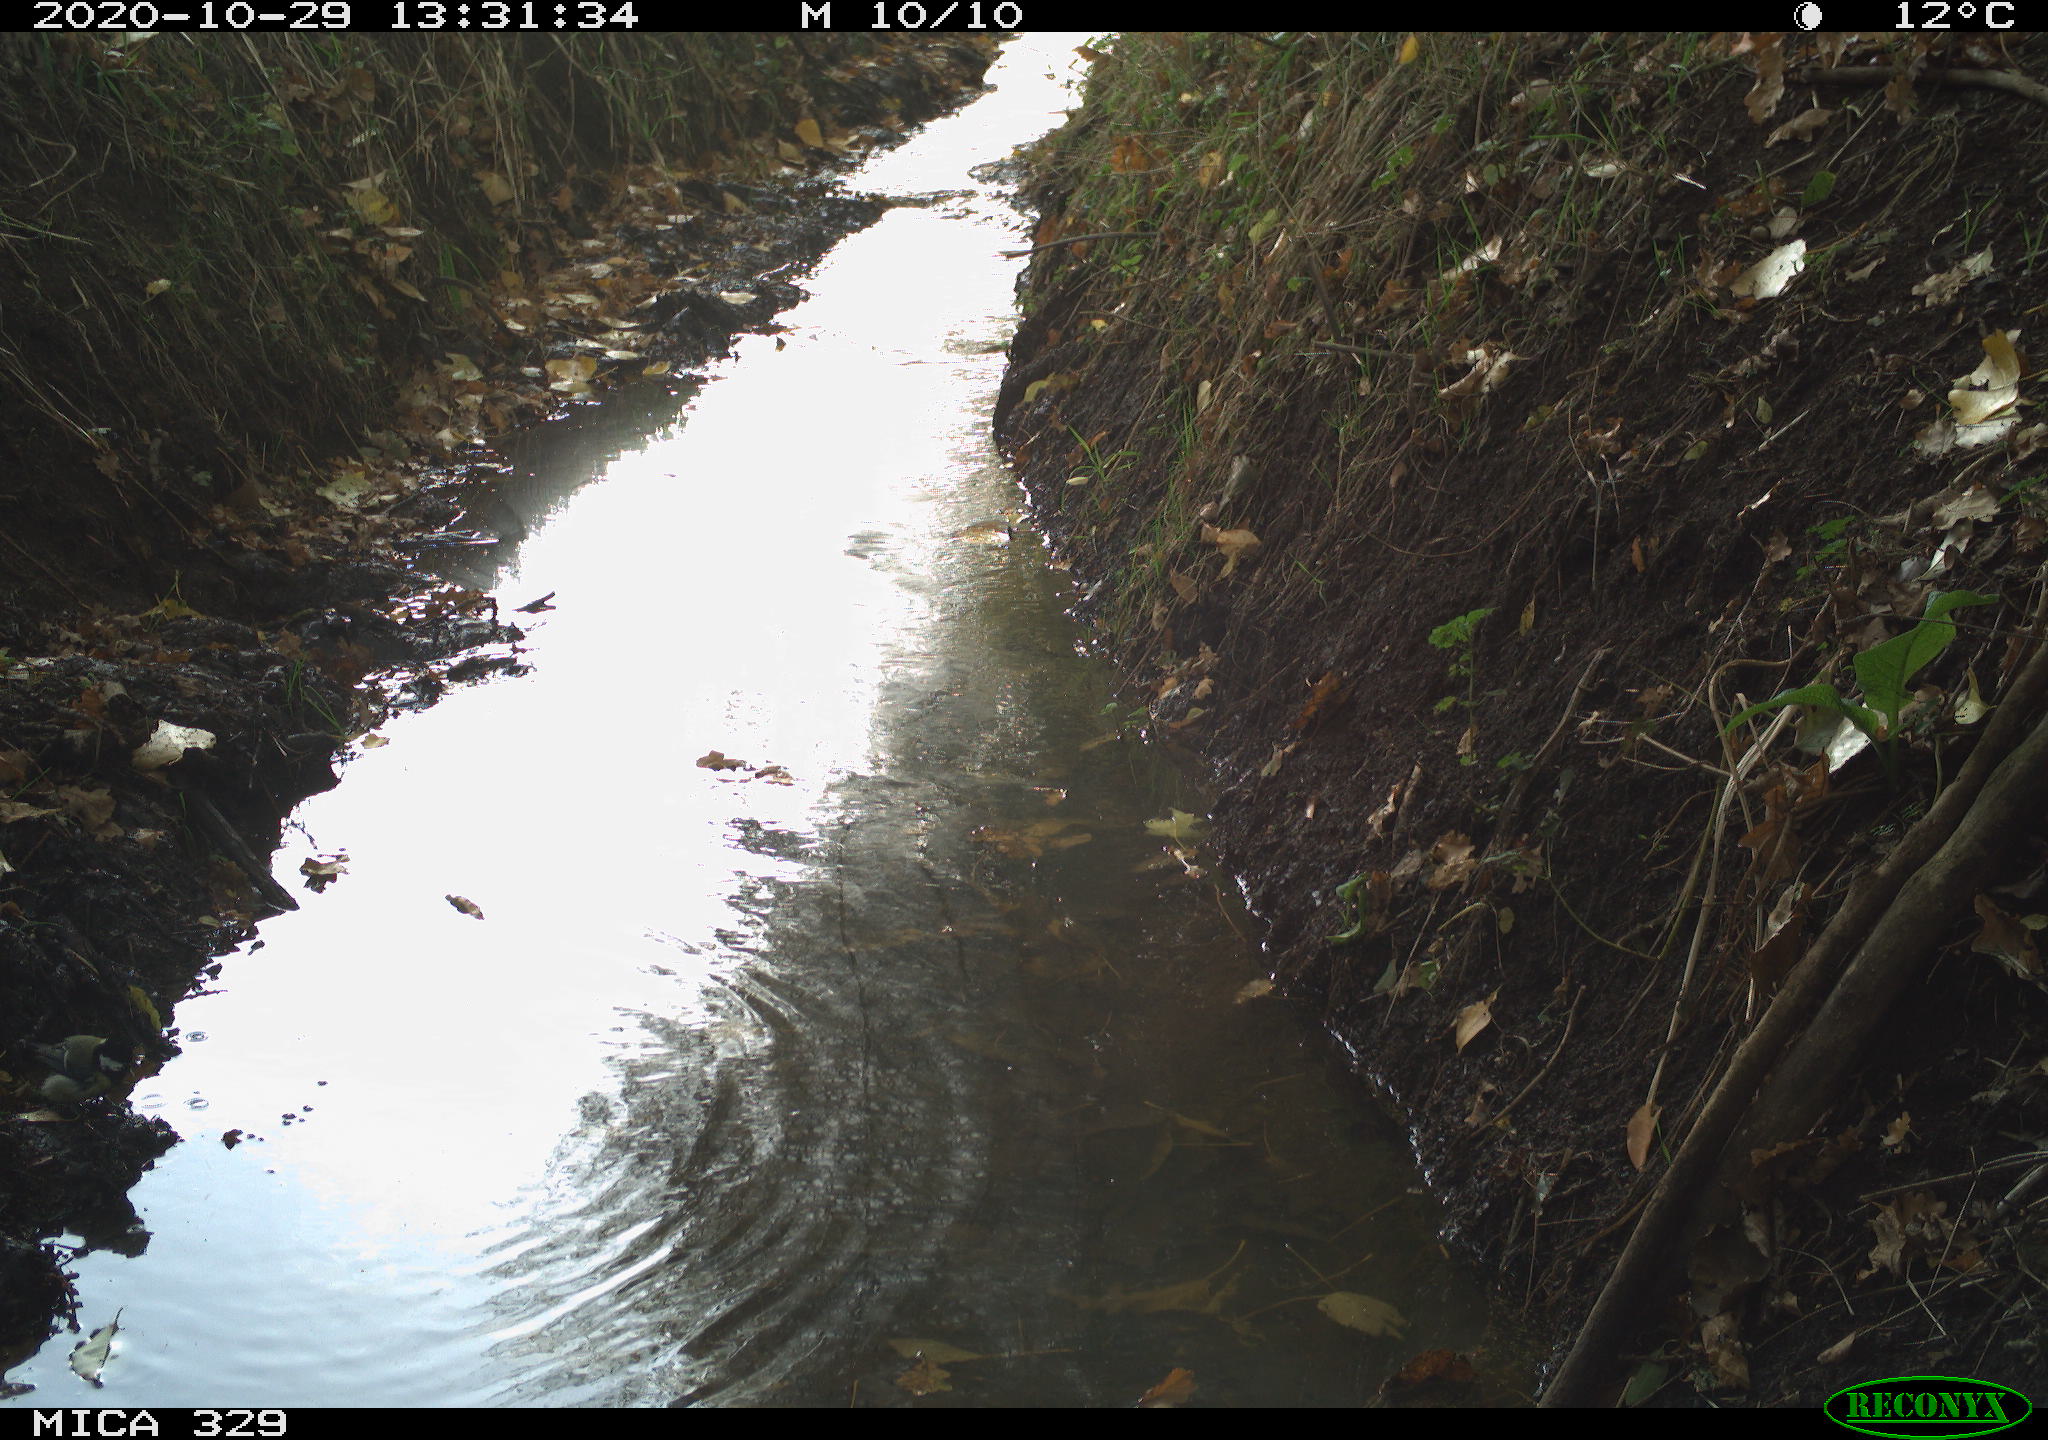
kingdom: Animalia
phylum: Chordata
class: Aves
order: Passeriformes
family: Paridae
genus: Parus
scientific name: Parus major
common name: Great tit
